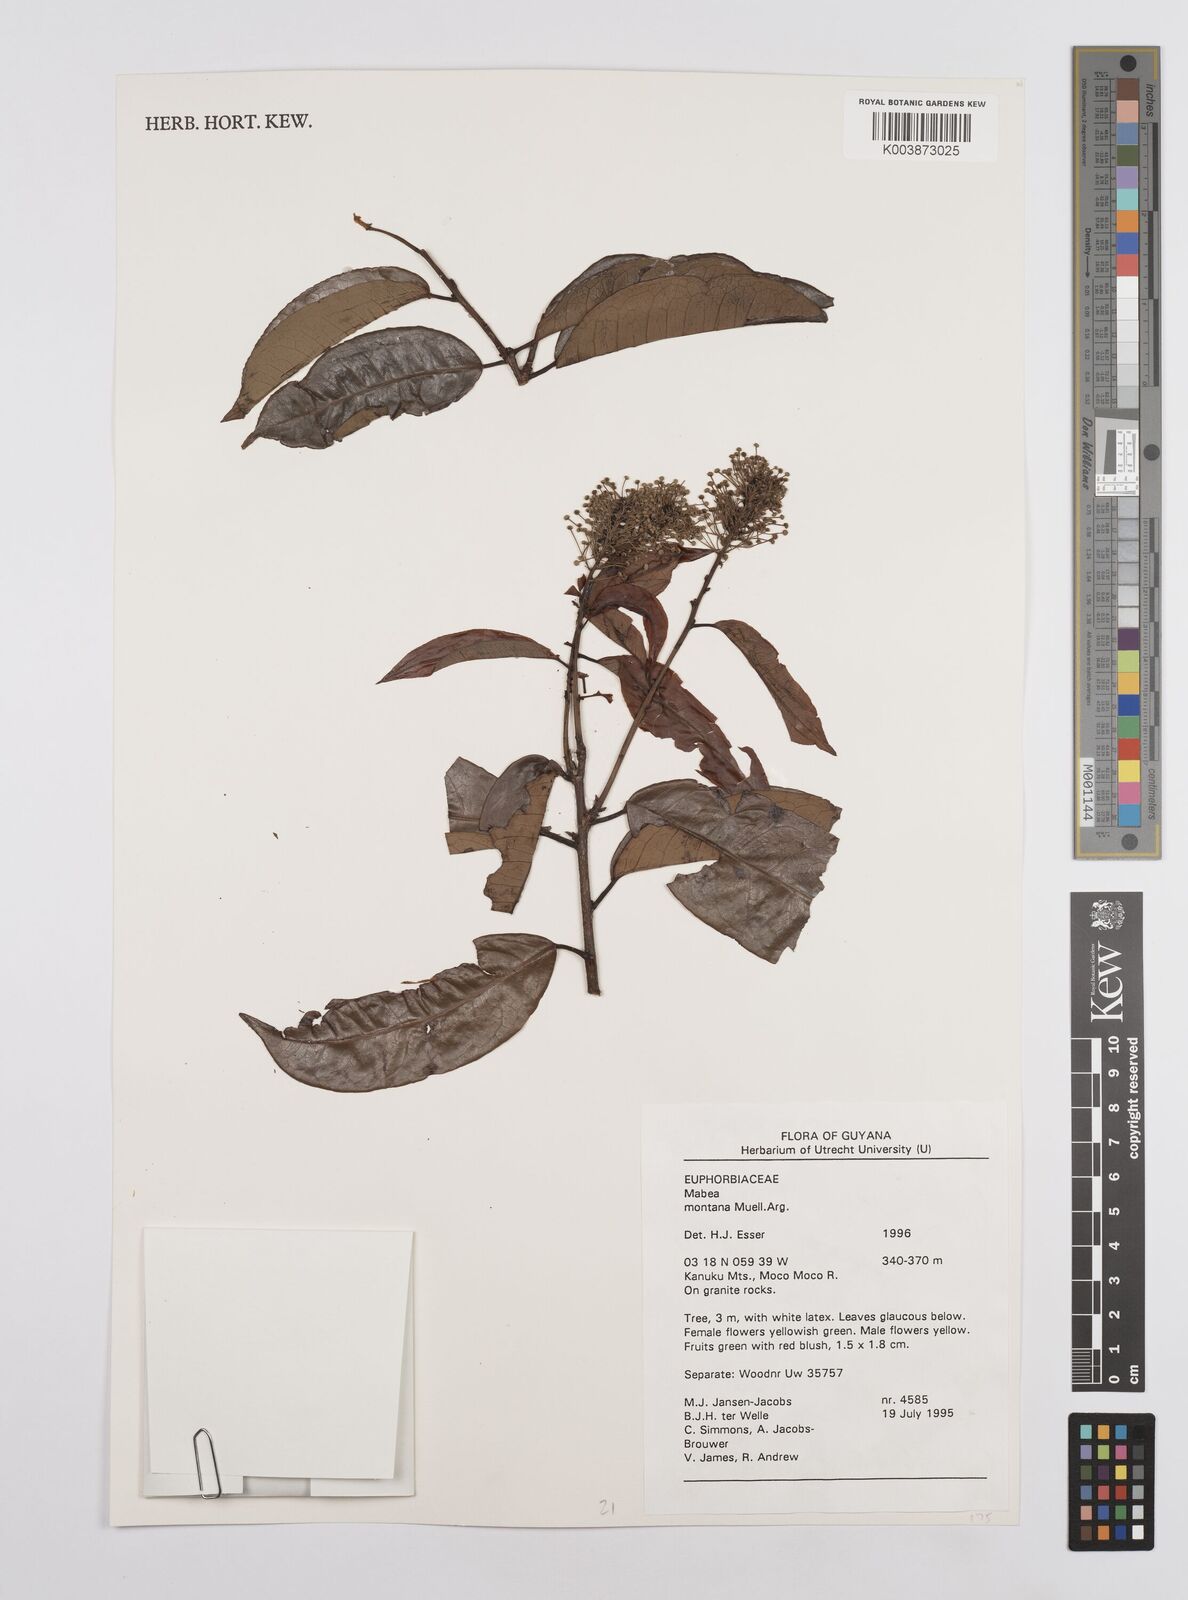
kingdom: Plantae
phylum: Tracheophyta
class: Magnoliopsida
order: Malpighiales
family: Euphorbiaceae
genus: Mabea
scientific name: Mabea montana
